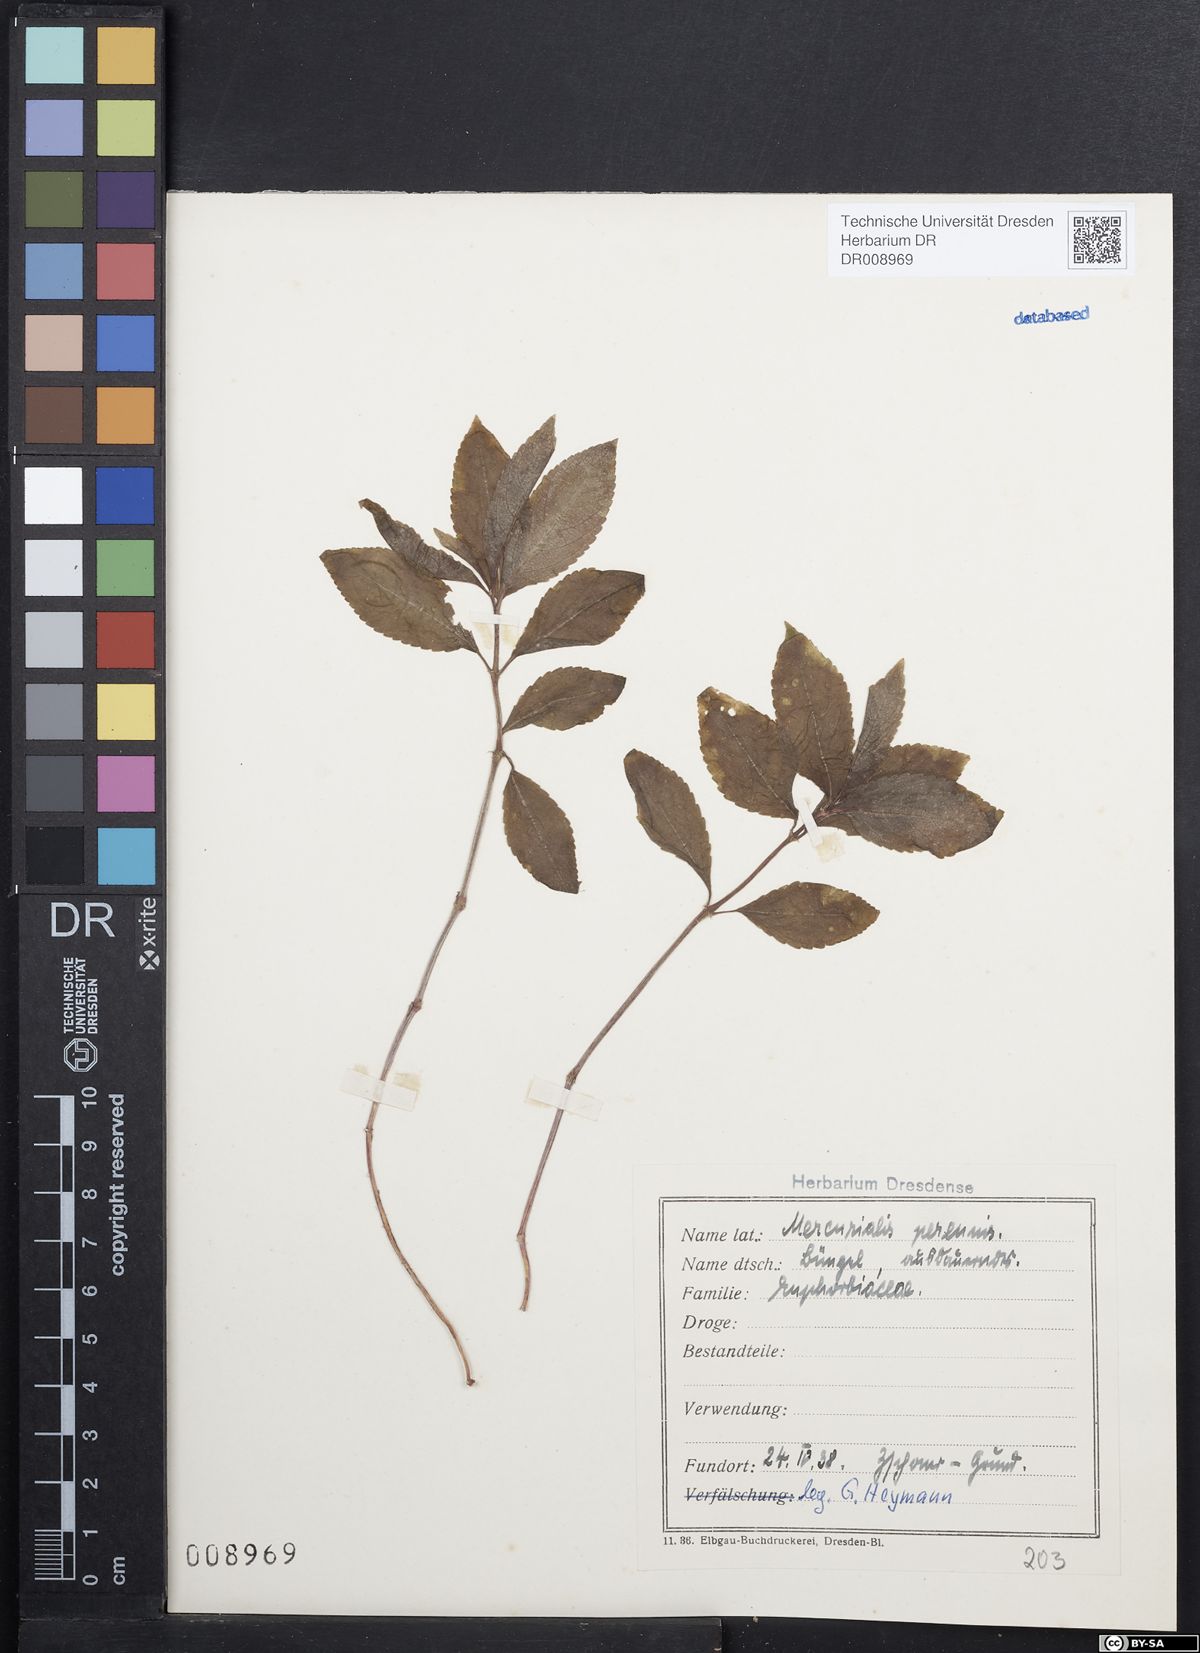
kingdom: Plantae
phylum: Tracheophyta
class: Magnoliopsida
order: Malpighiales
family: Euphorbiaceae
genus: Mercurialis
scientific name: Mercurialis perennis
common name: Dog mercury
